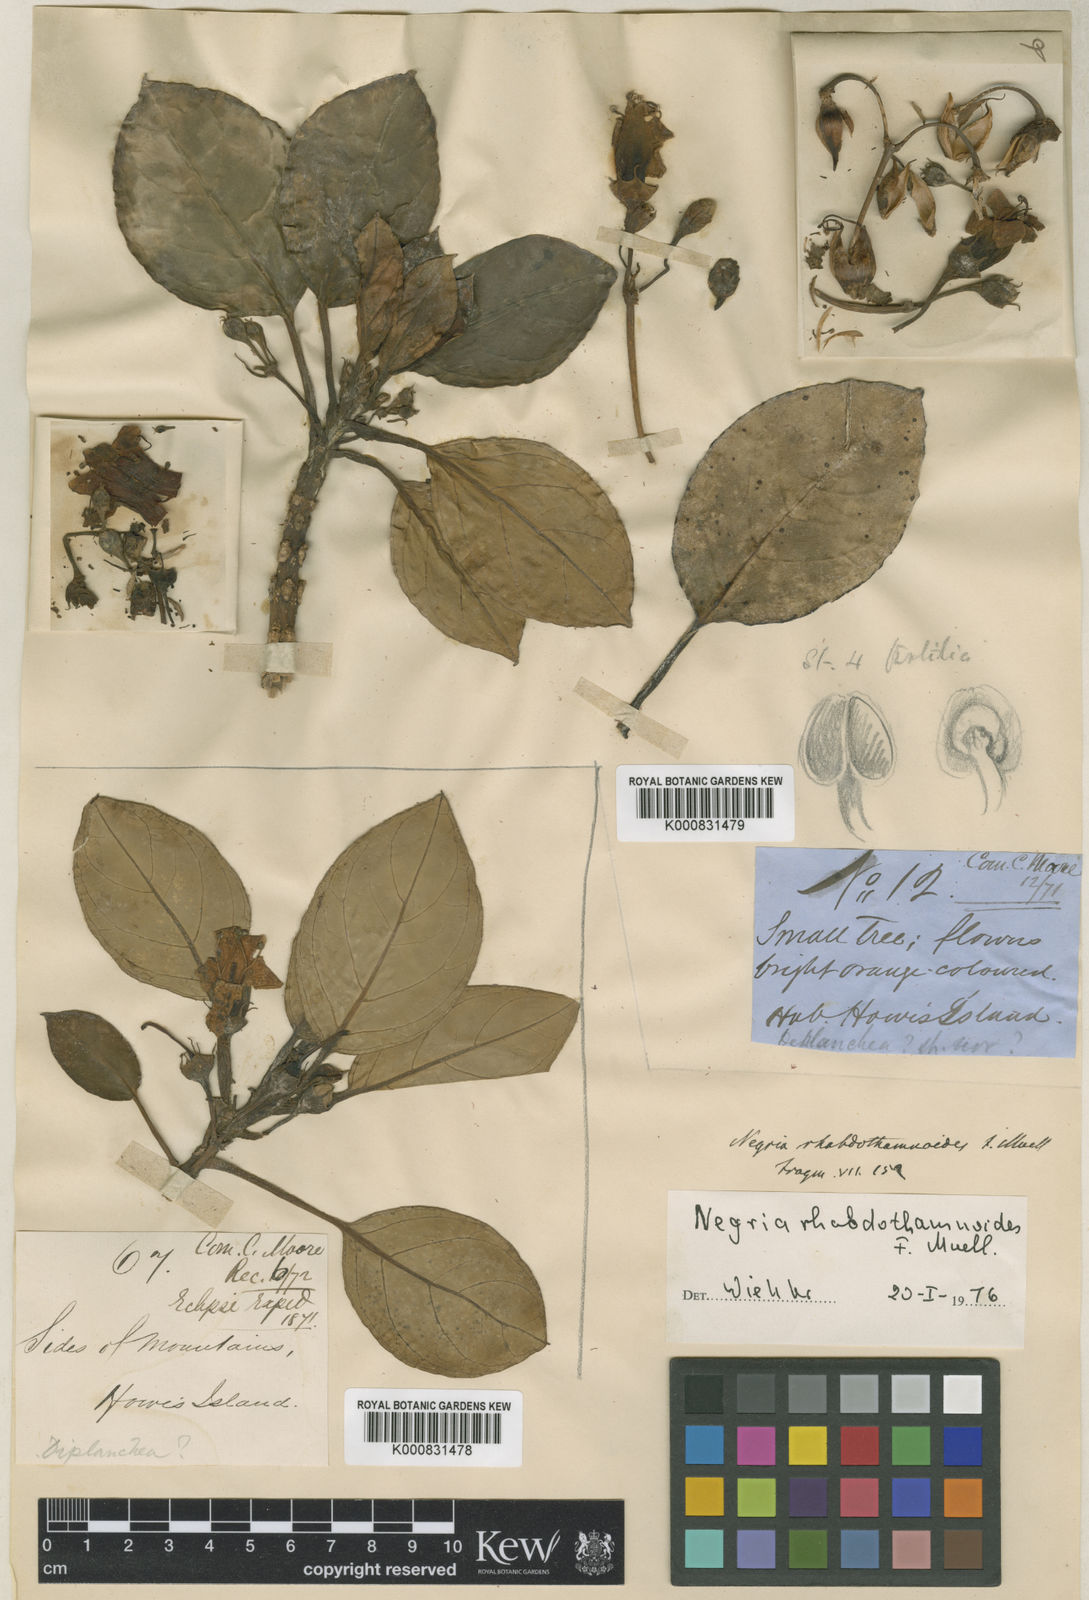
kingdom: Plantae
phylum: Tracheophyta
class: Magnoliopsida
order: Lamiales
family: Gesneriaceae
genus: Negria
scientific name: Negria rhabdothamnoides
